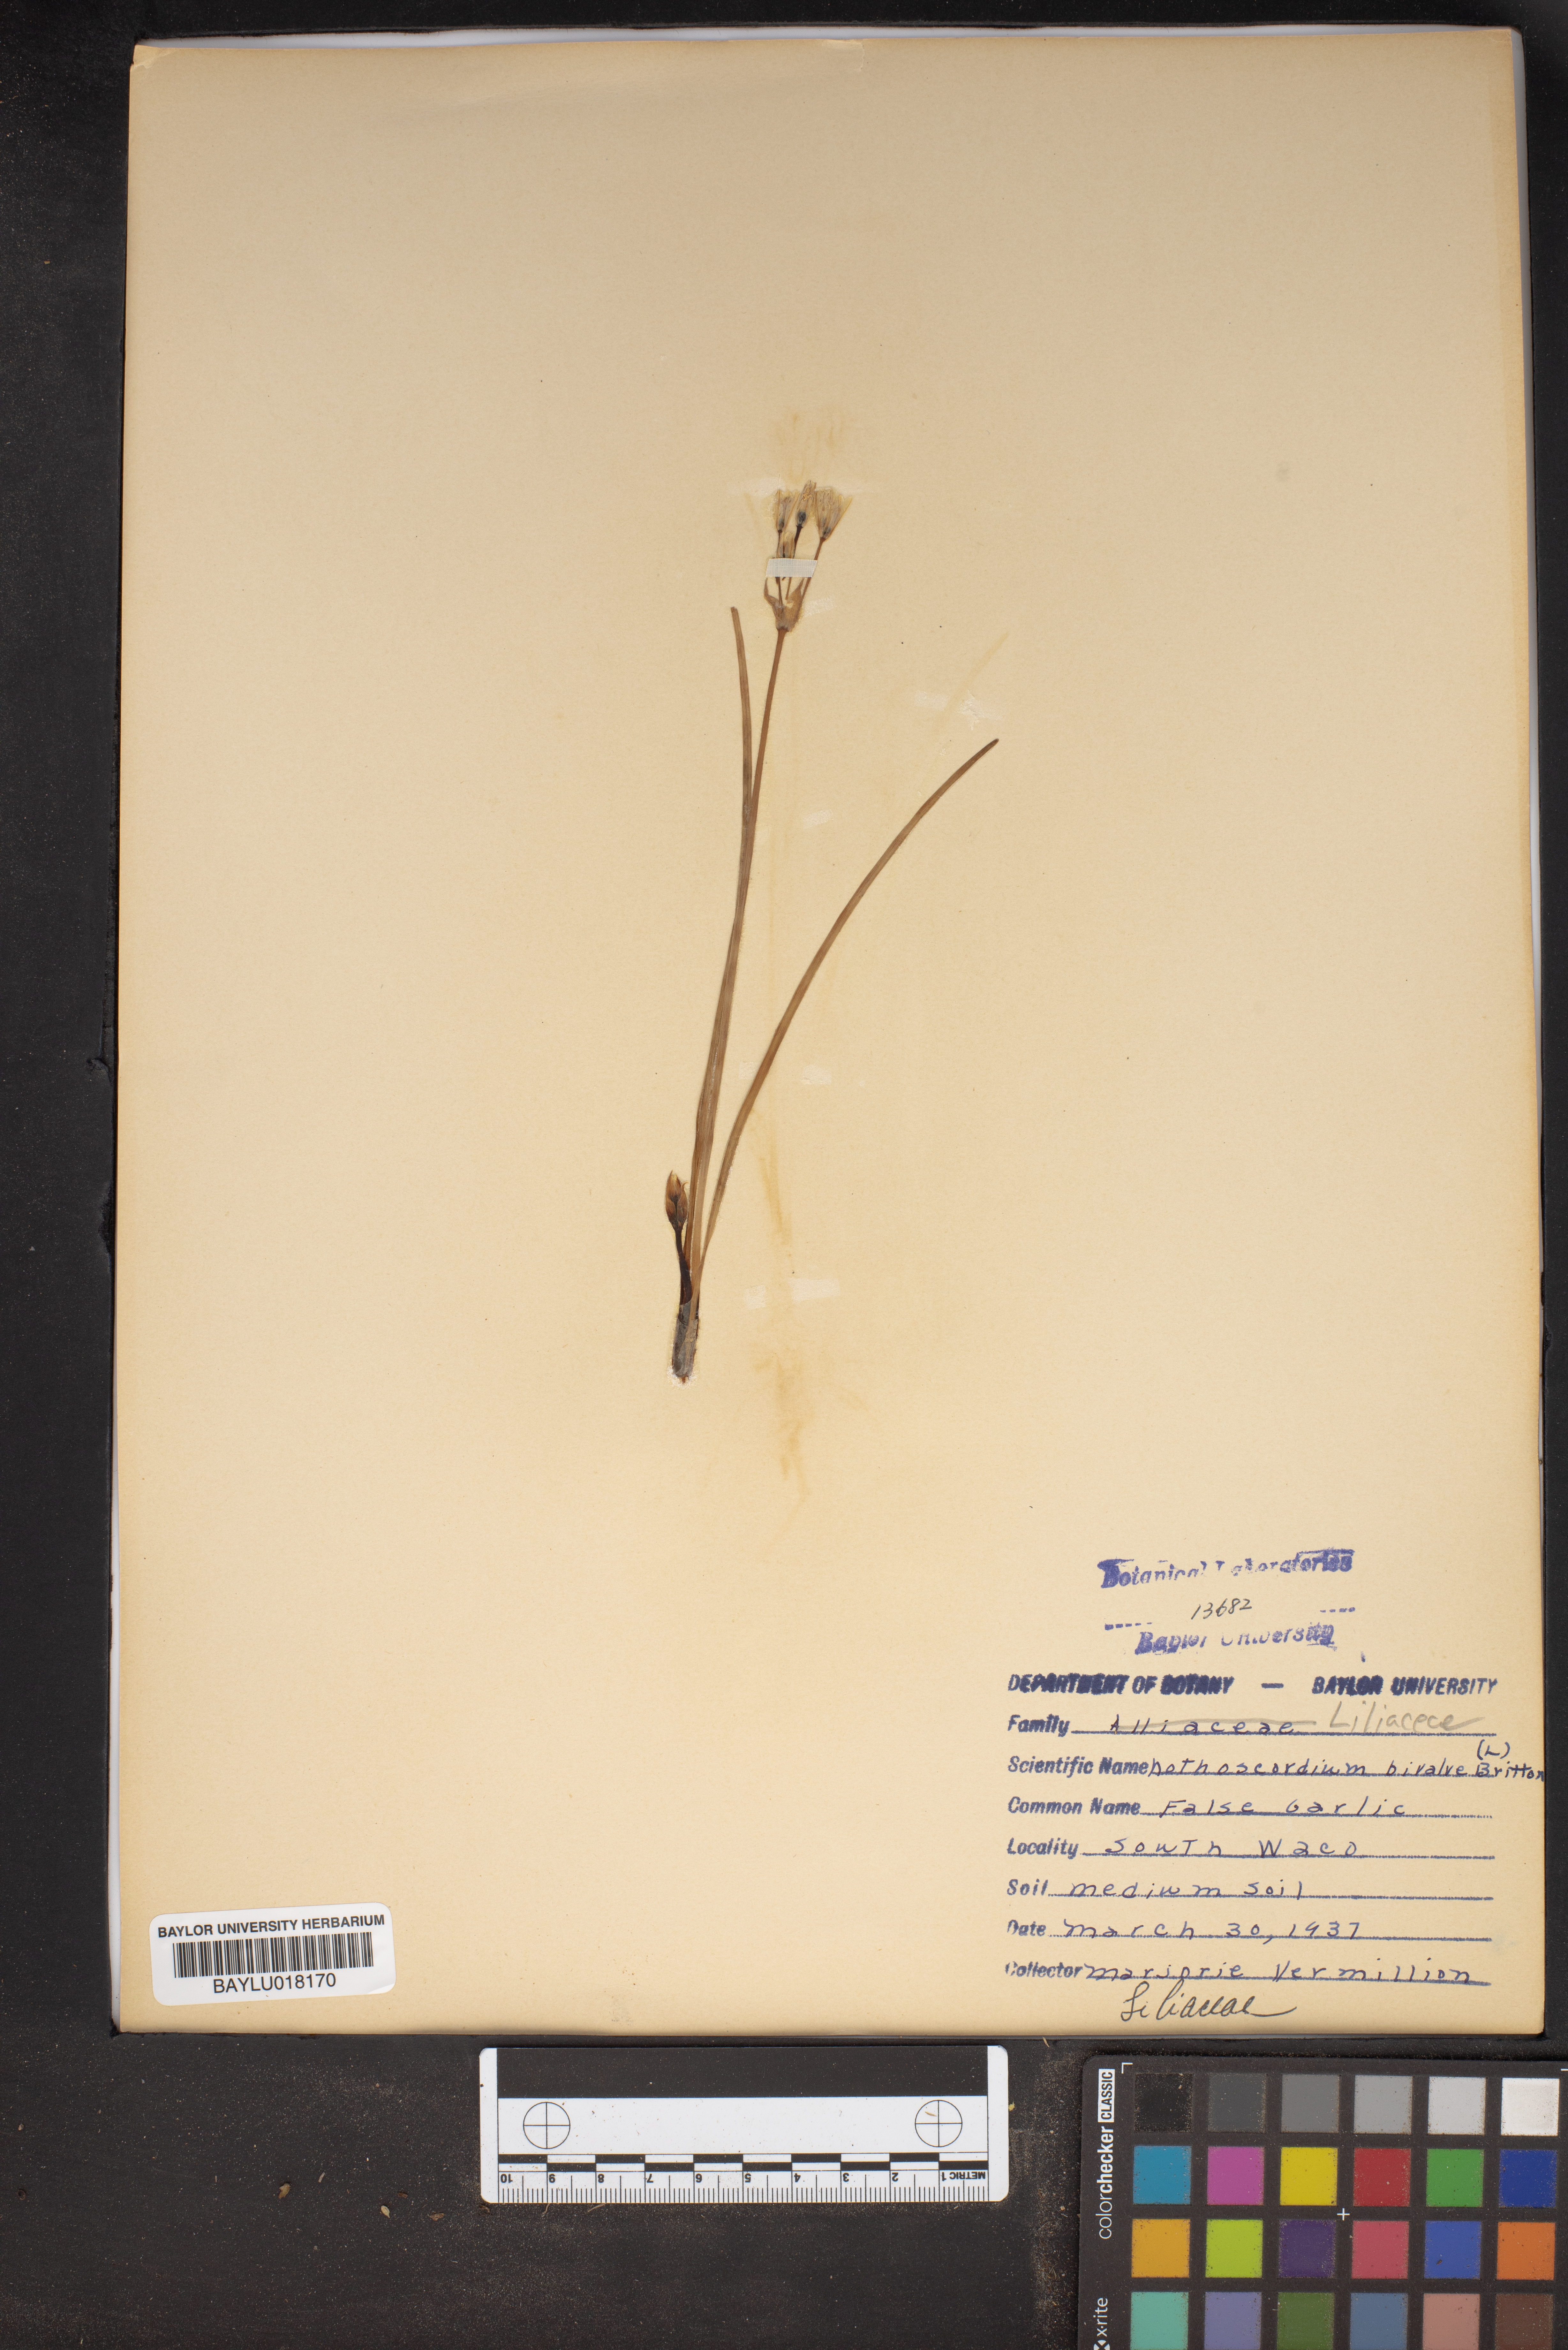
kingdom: Plantae
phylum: Tracheophyta
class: Liliopsida
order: Asparagales
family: Amaryllidaceae
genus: Nothoscordum
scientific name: Nothoscordum bivalve
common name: Crow-poison
